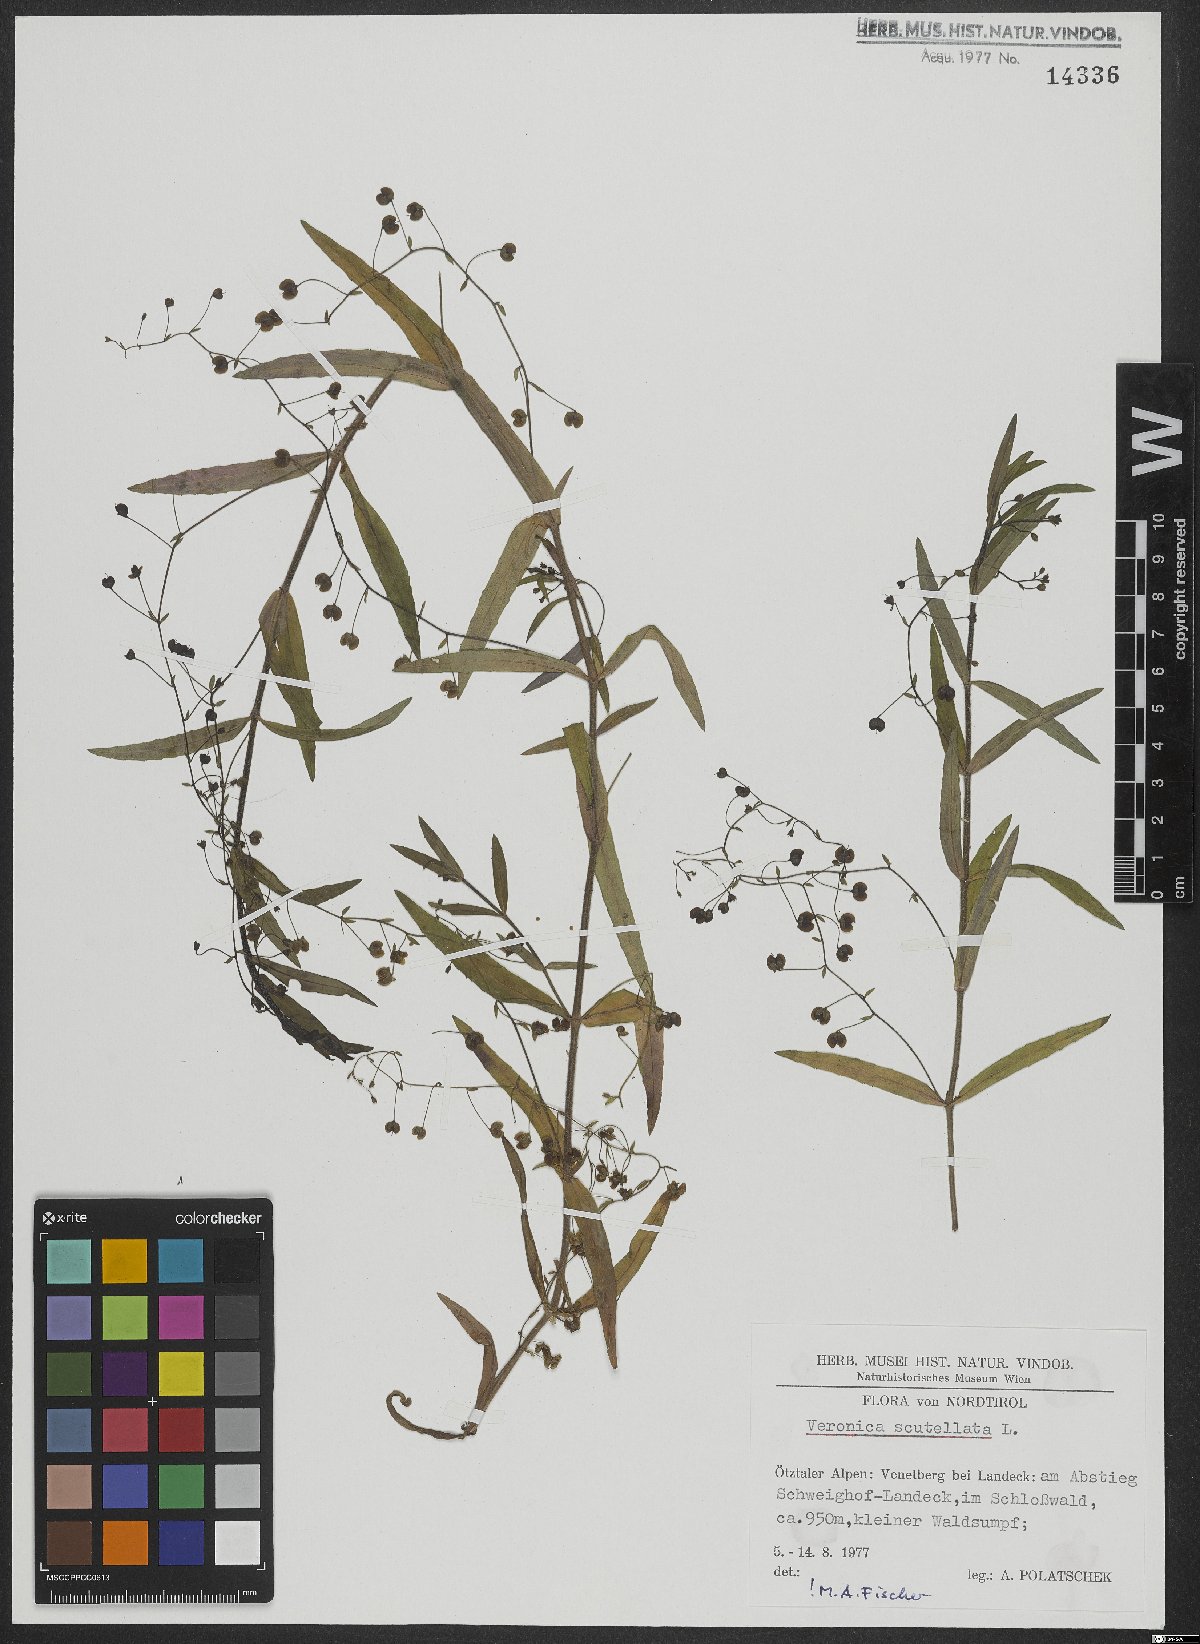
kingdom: Plantae
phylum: Tracheophyta
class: Magnoliopsida
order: Lamiales
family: Plantaginaceae
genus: Veronica
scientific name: Veronica scutellata
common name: Marsh speedwell
